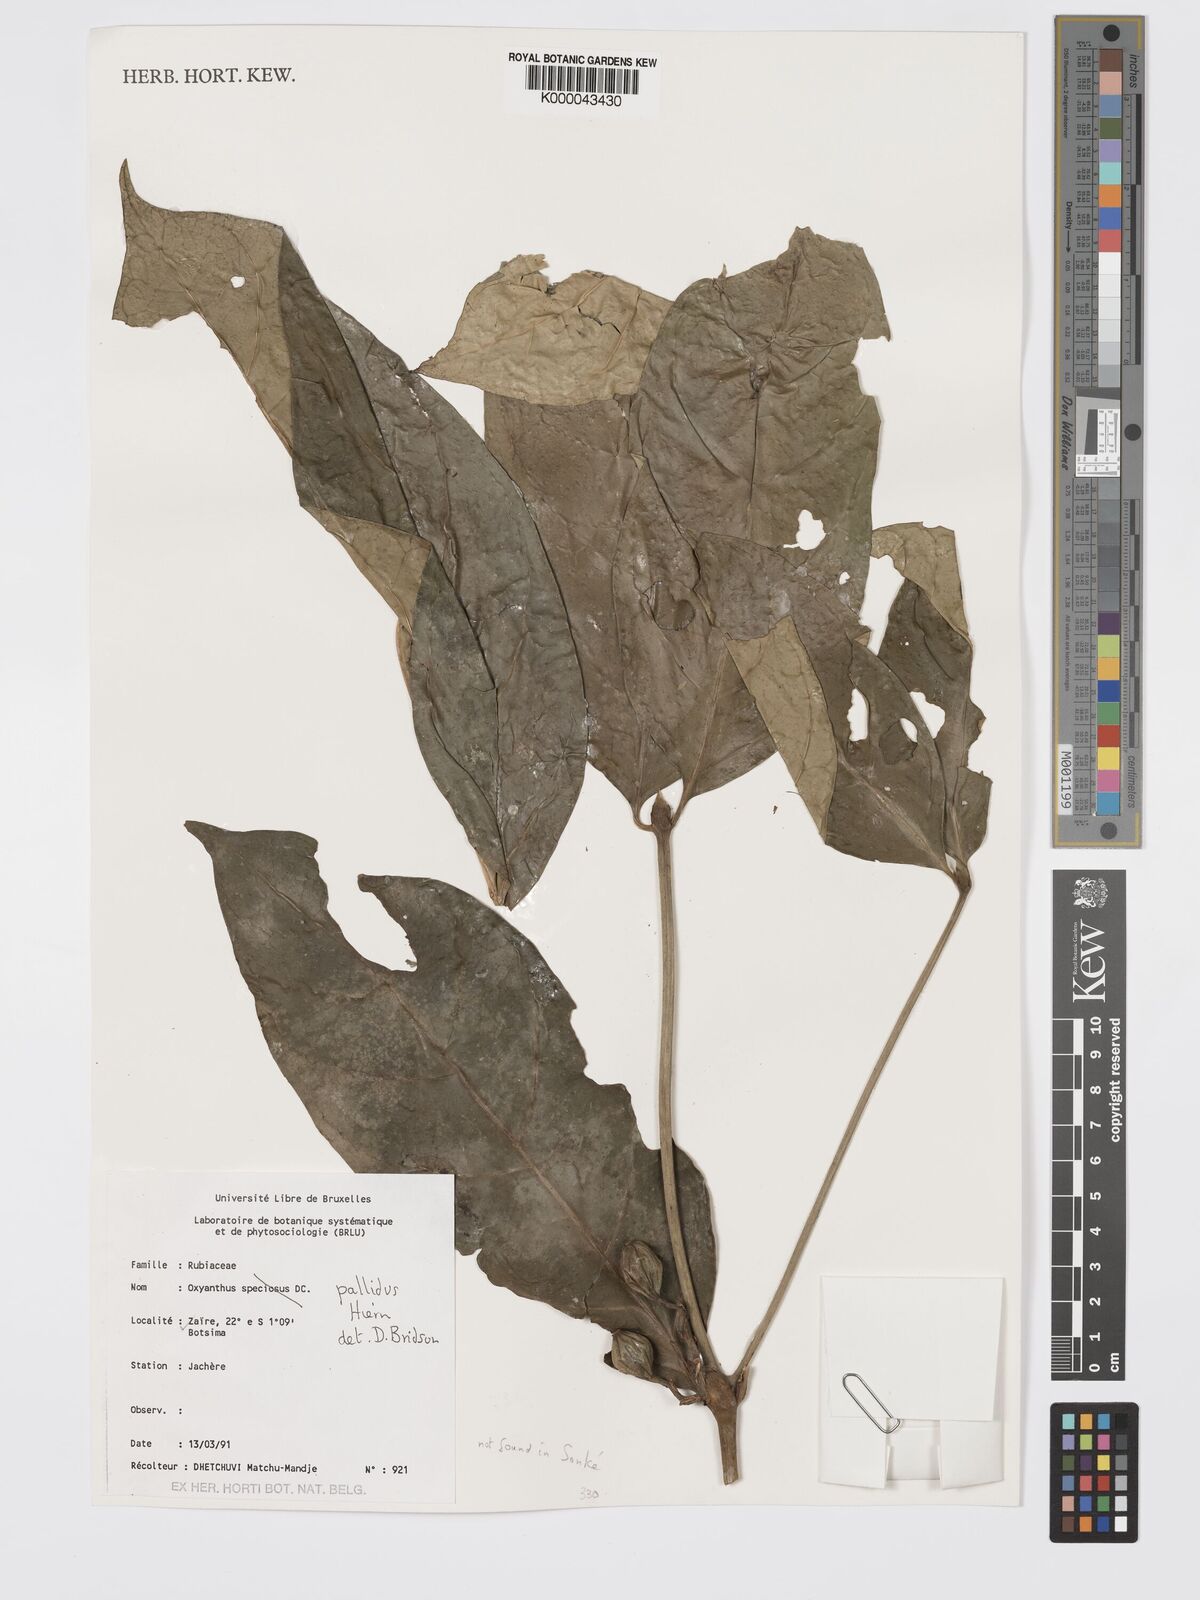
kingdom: Plantae
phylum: Tracheophyta
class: Magnoliopsida
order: Gentianales
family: Rubiaceae
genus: Oxyanthus
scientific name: Oxyanthus pallidus
